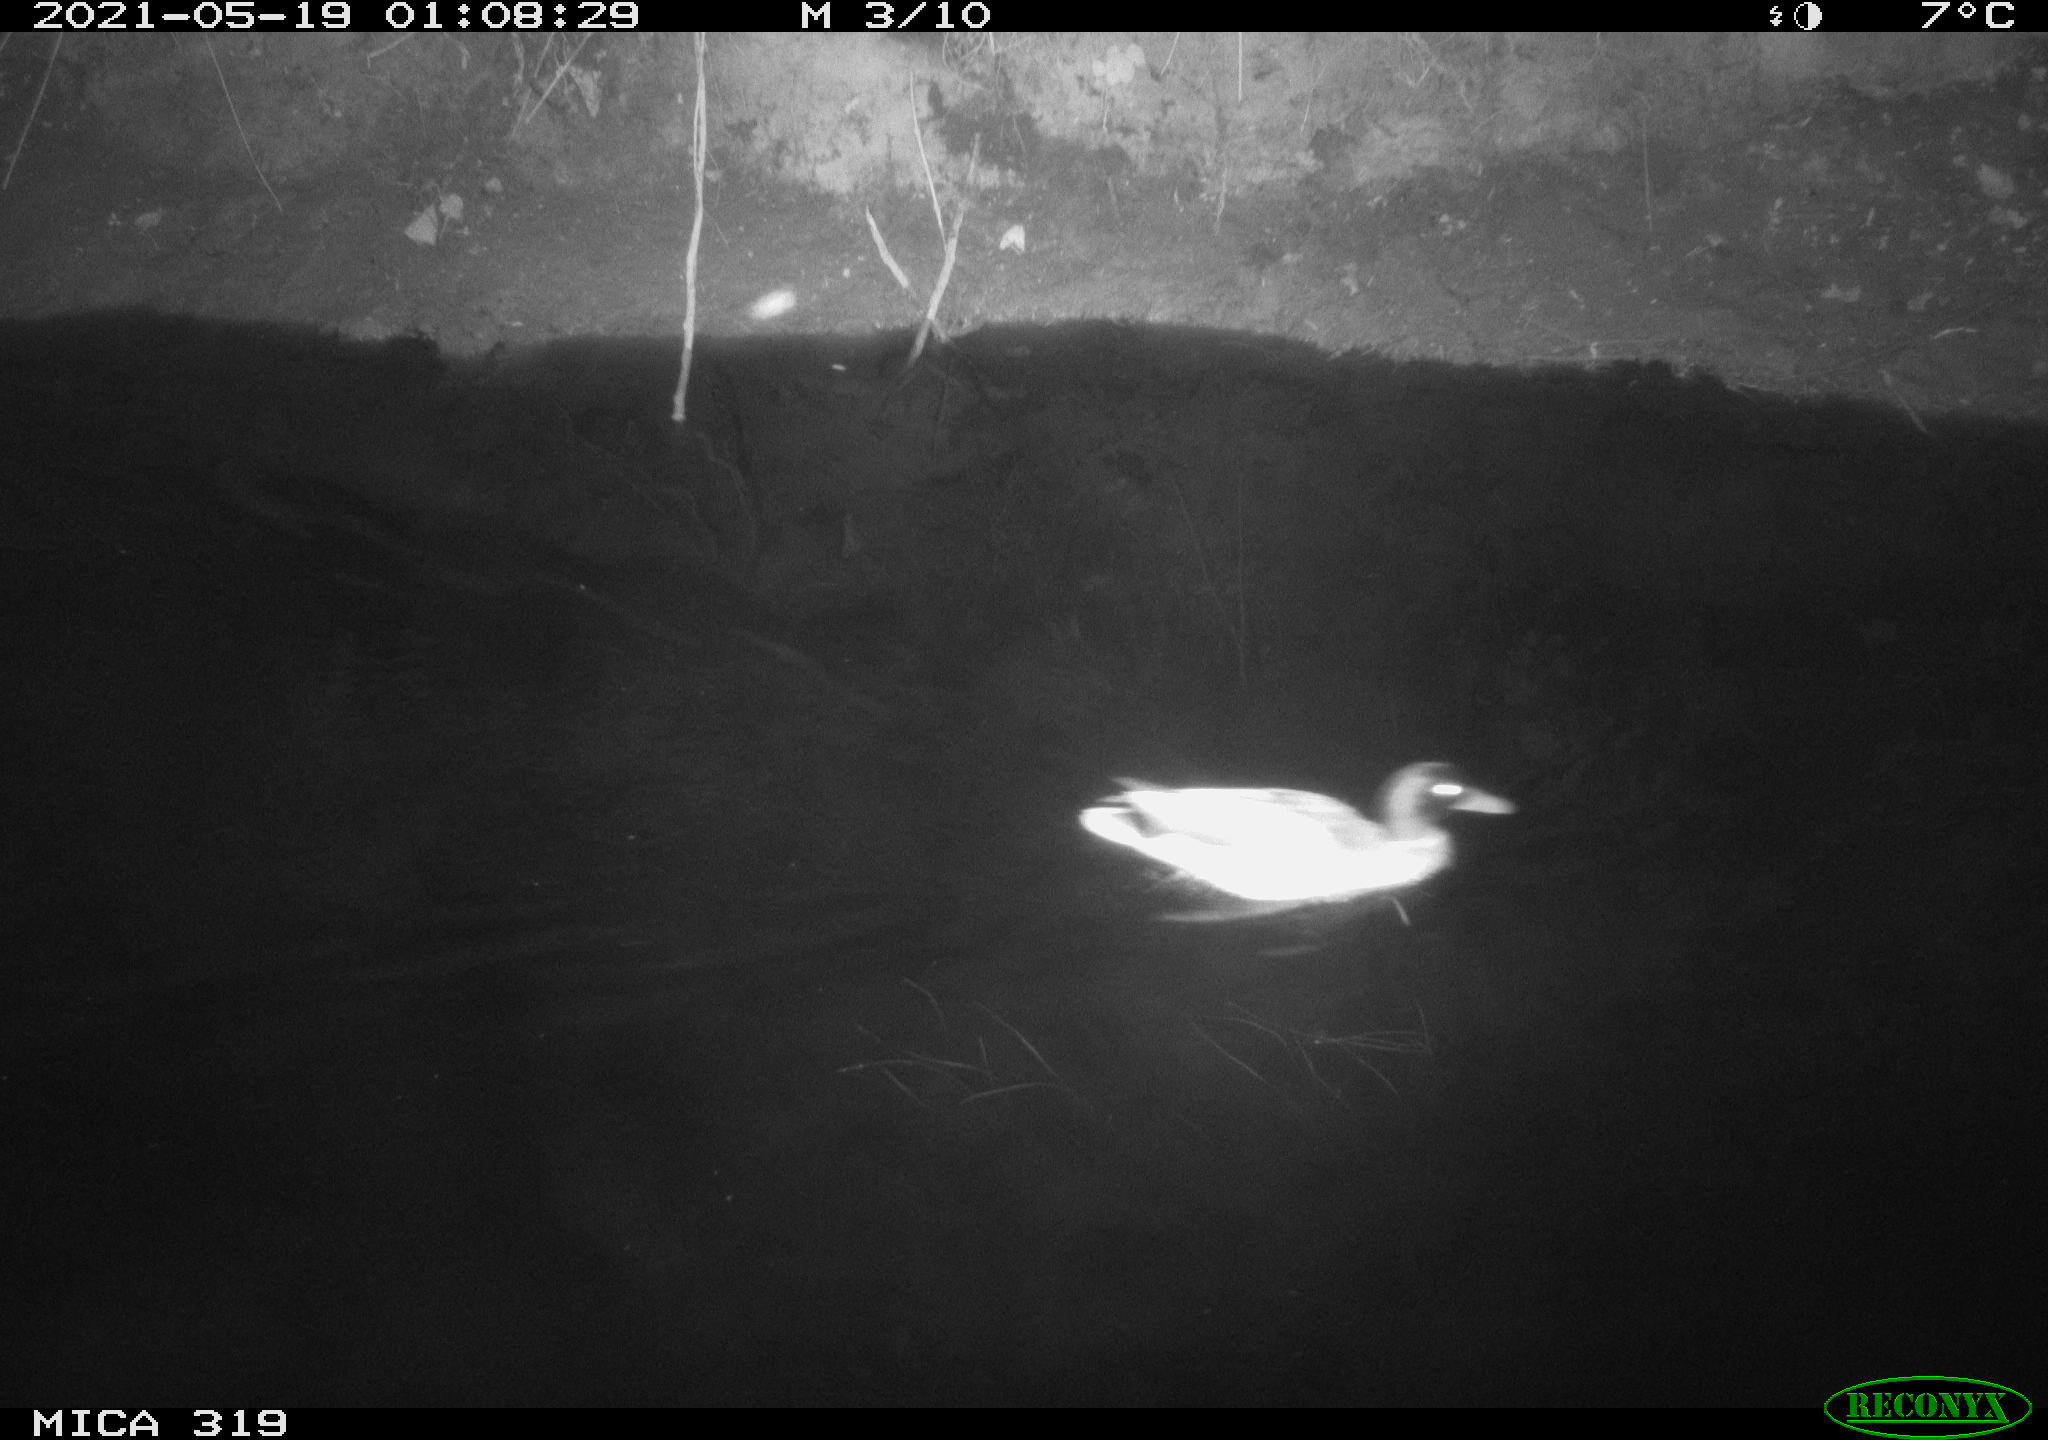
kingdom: Animalia
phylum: Chordata
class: Aves
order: Anseriformes
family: Anatidae
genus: Anas
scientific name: Anas platyrhynchos
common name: Mallard
